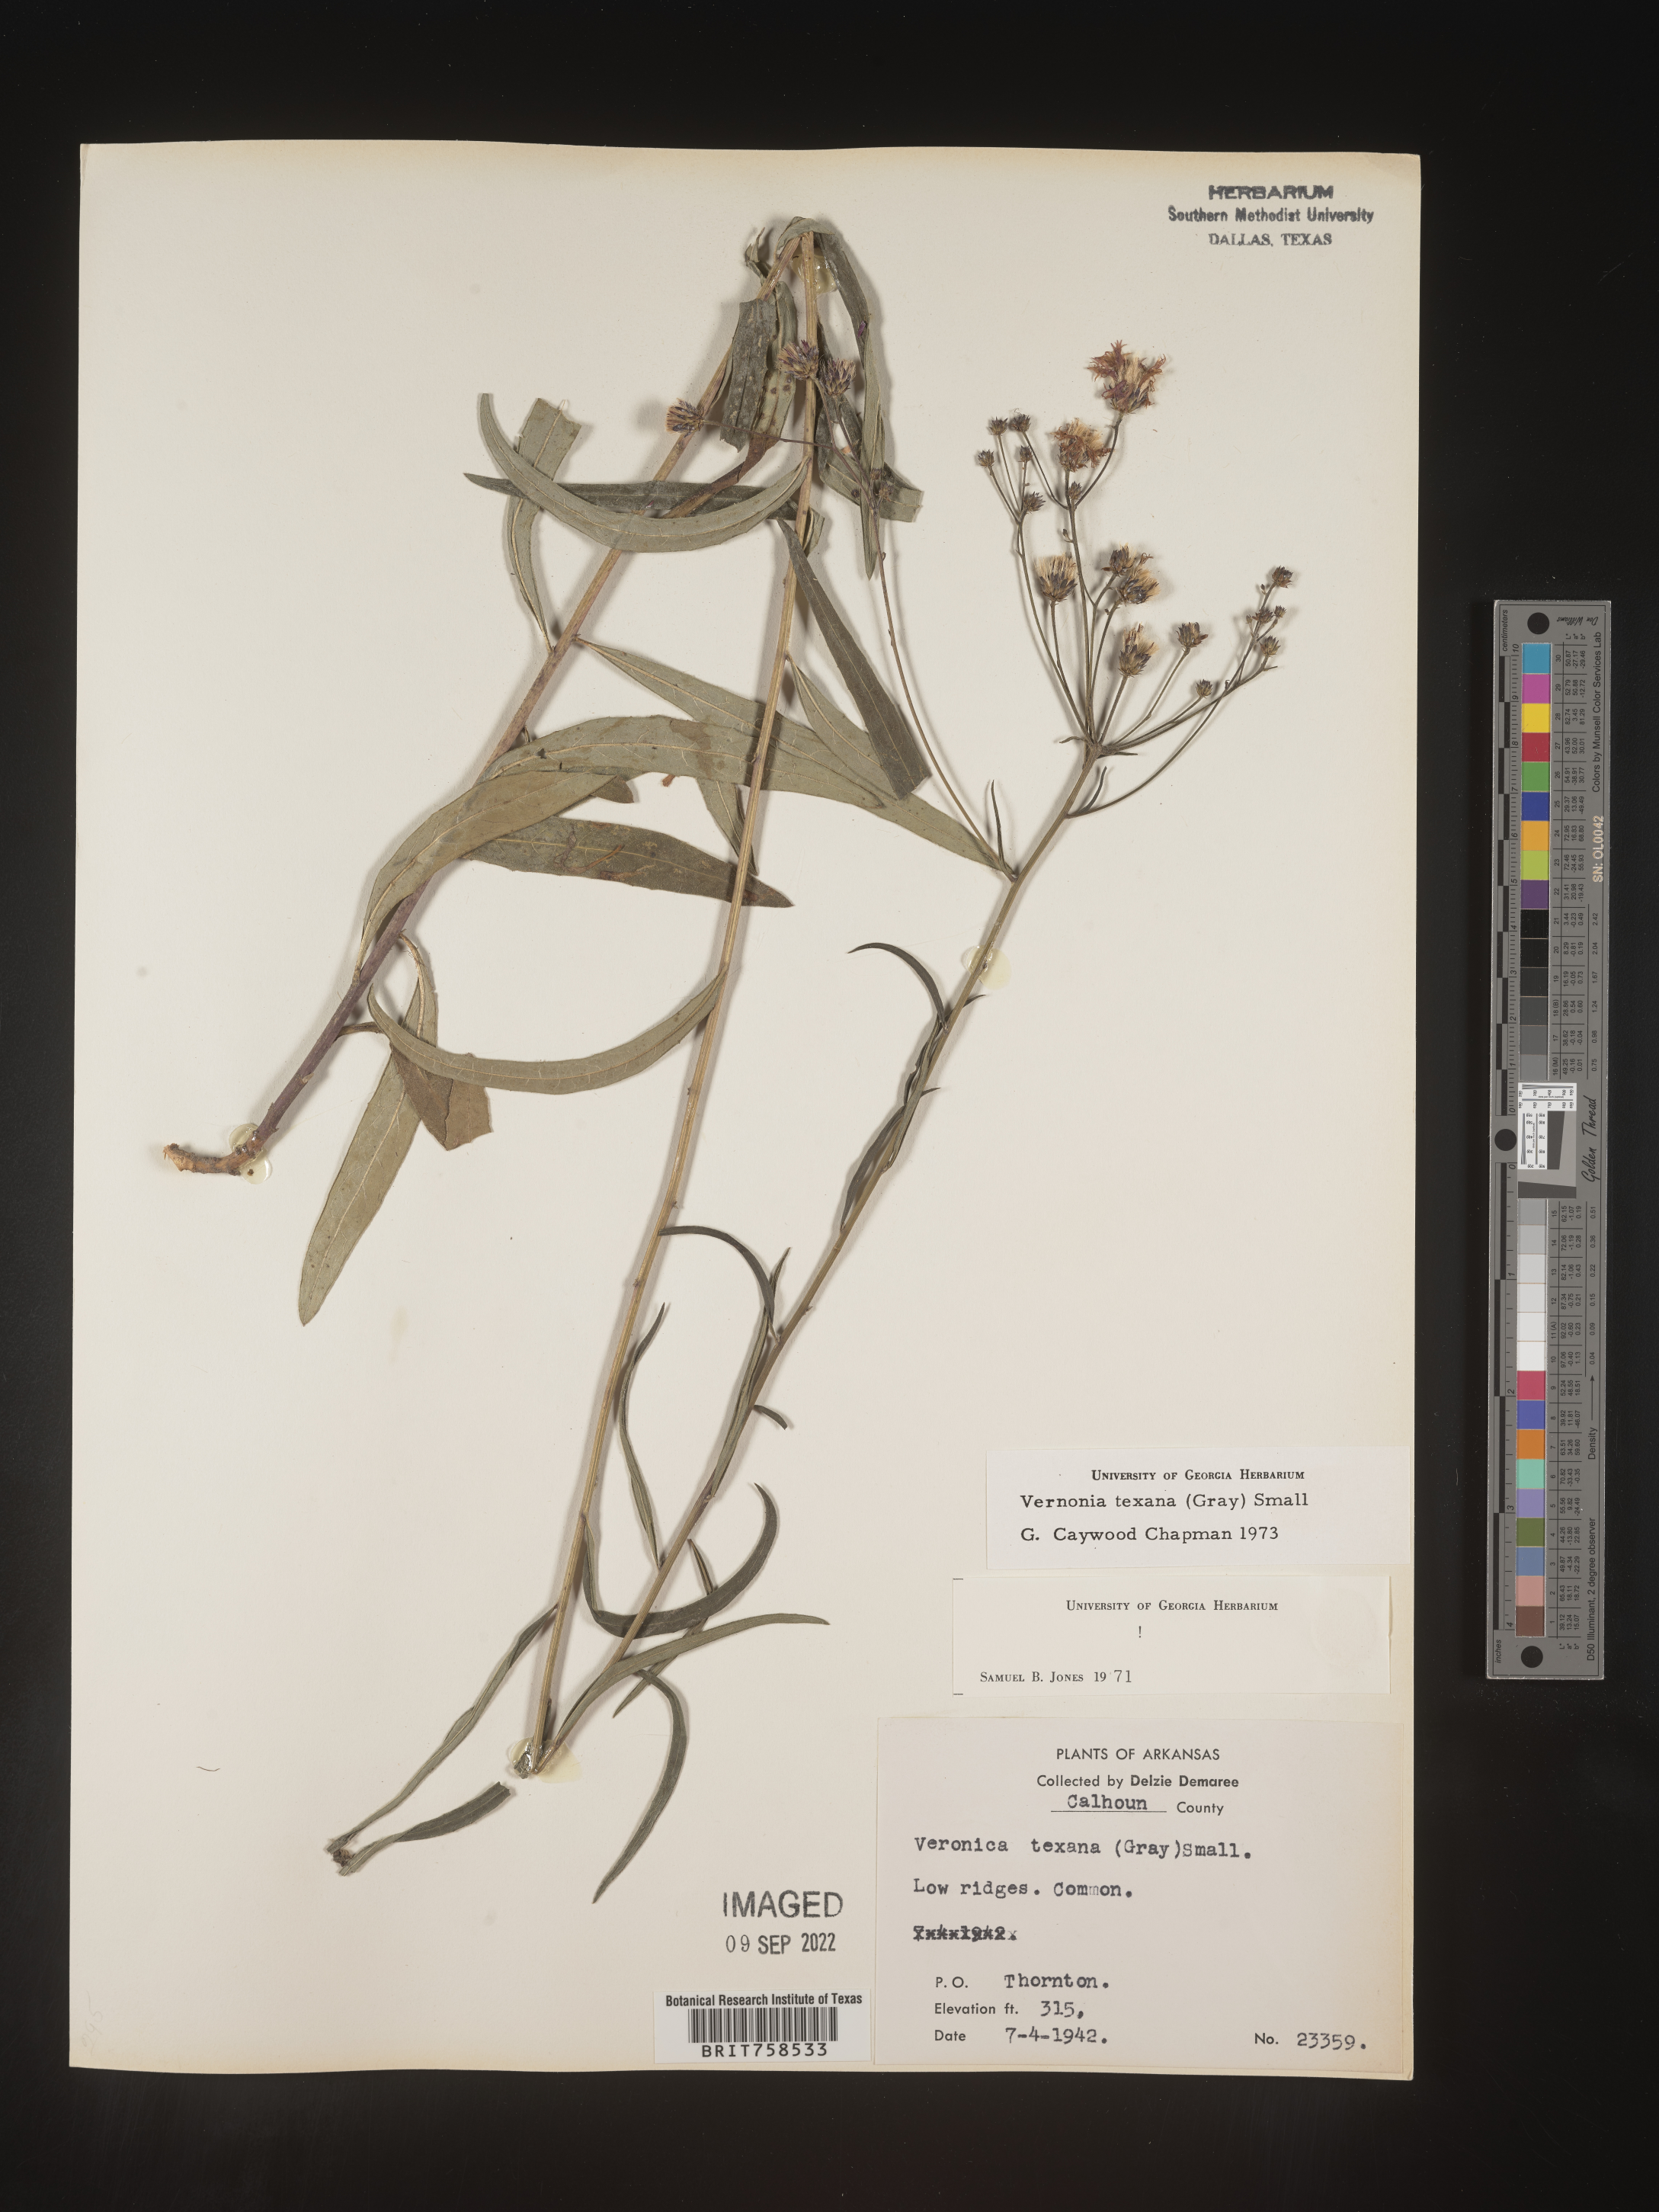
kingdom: Plantae
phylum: Tracheophyta
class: Magnoliopsida
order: Asterales
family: Asteraceae
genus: Vernonia
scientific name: Vernonia texana
